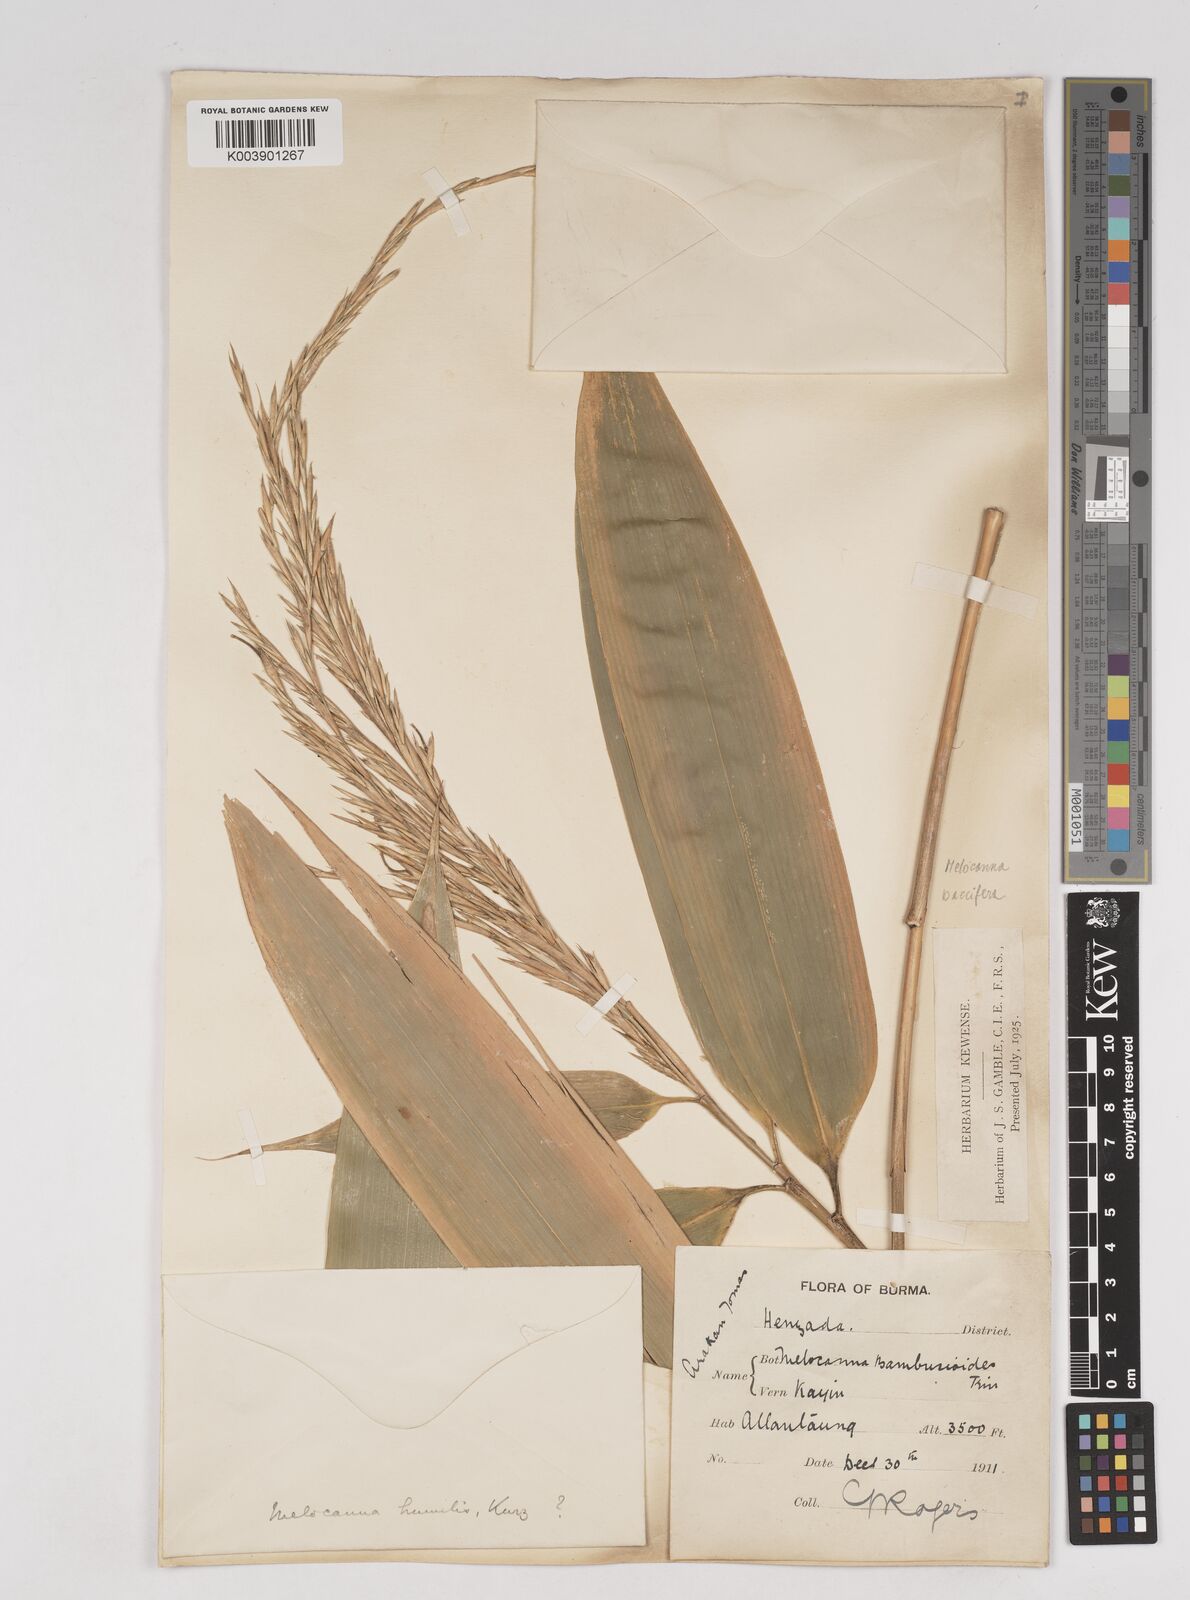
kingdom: Plantae
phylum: Tracheophyta
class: Liliopsida
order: Poales
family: Poaceae
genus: Melocanna
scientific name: Melocanna baccifera
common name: Berry bamboo
